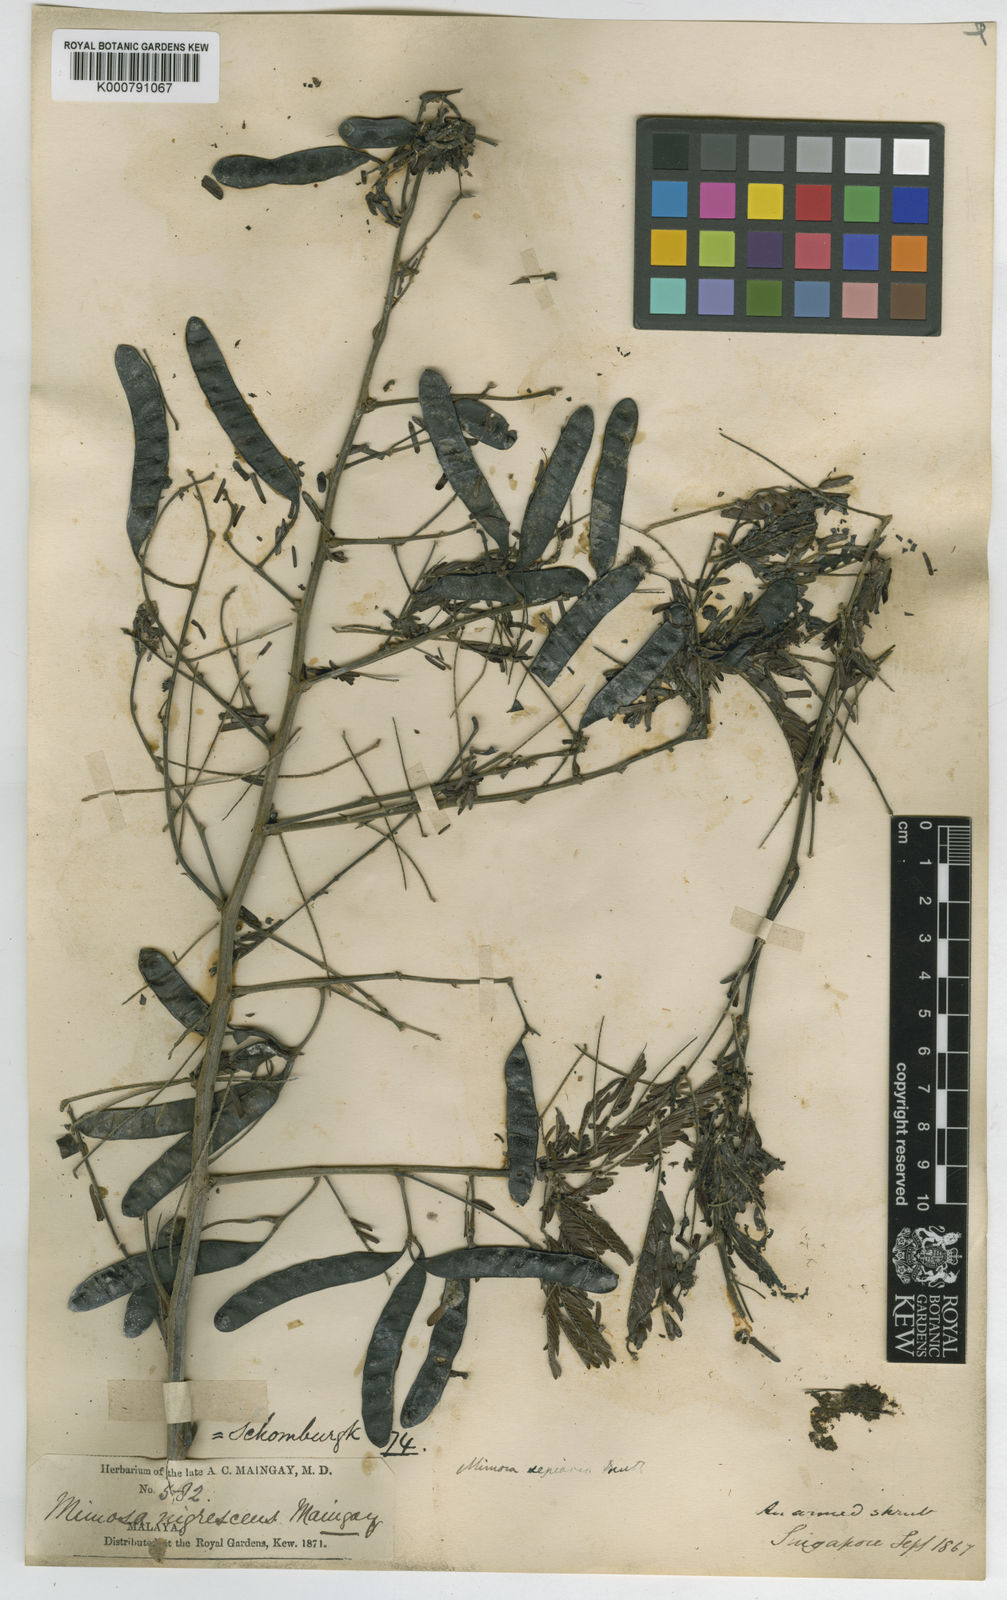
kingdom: Plantae
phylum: Tracheophyta
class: Magnoliopsida
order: Fabales
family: Fabaceae
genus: Mimosa
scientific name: Mimosa bimucronata
